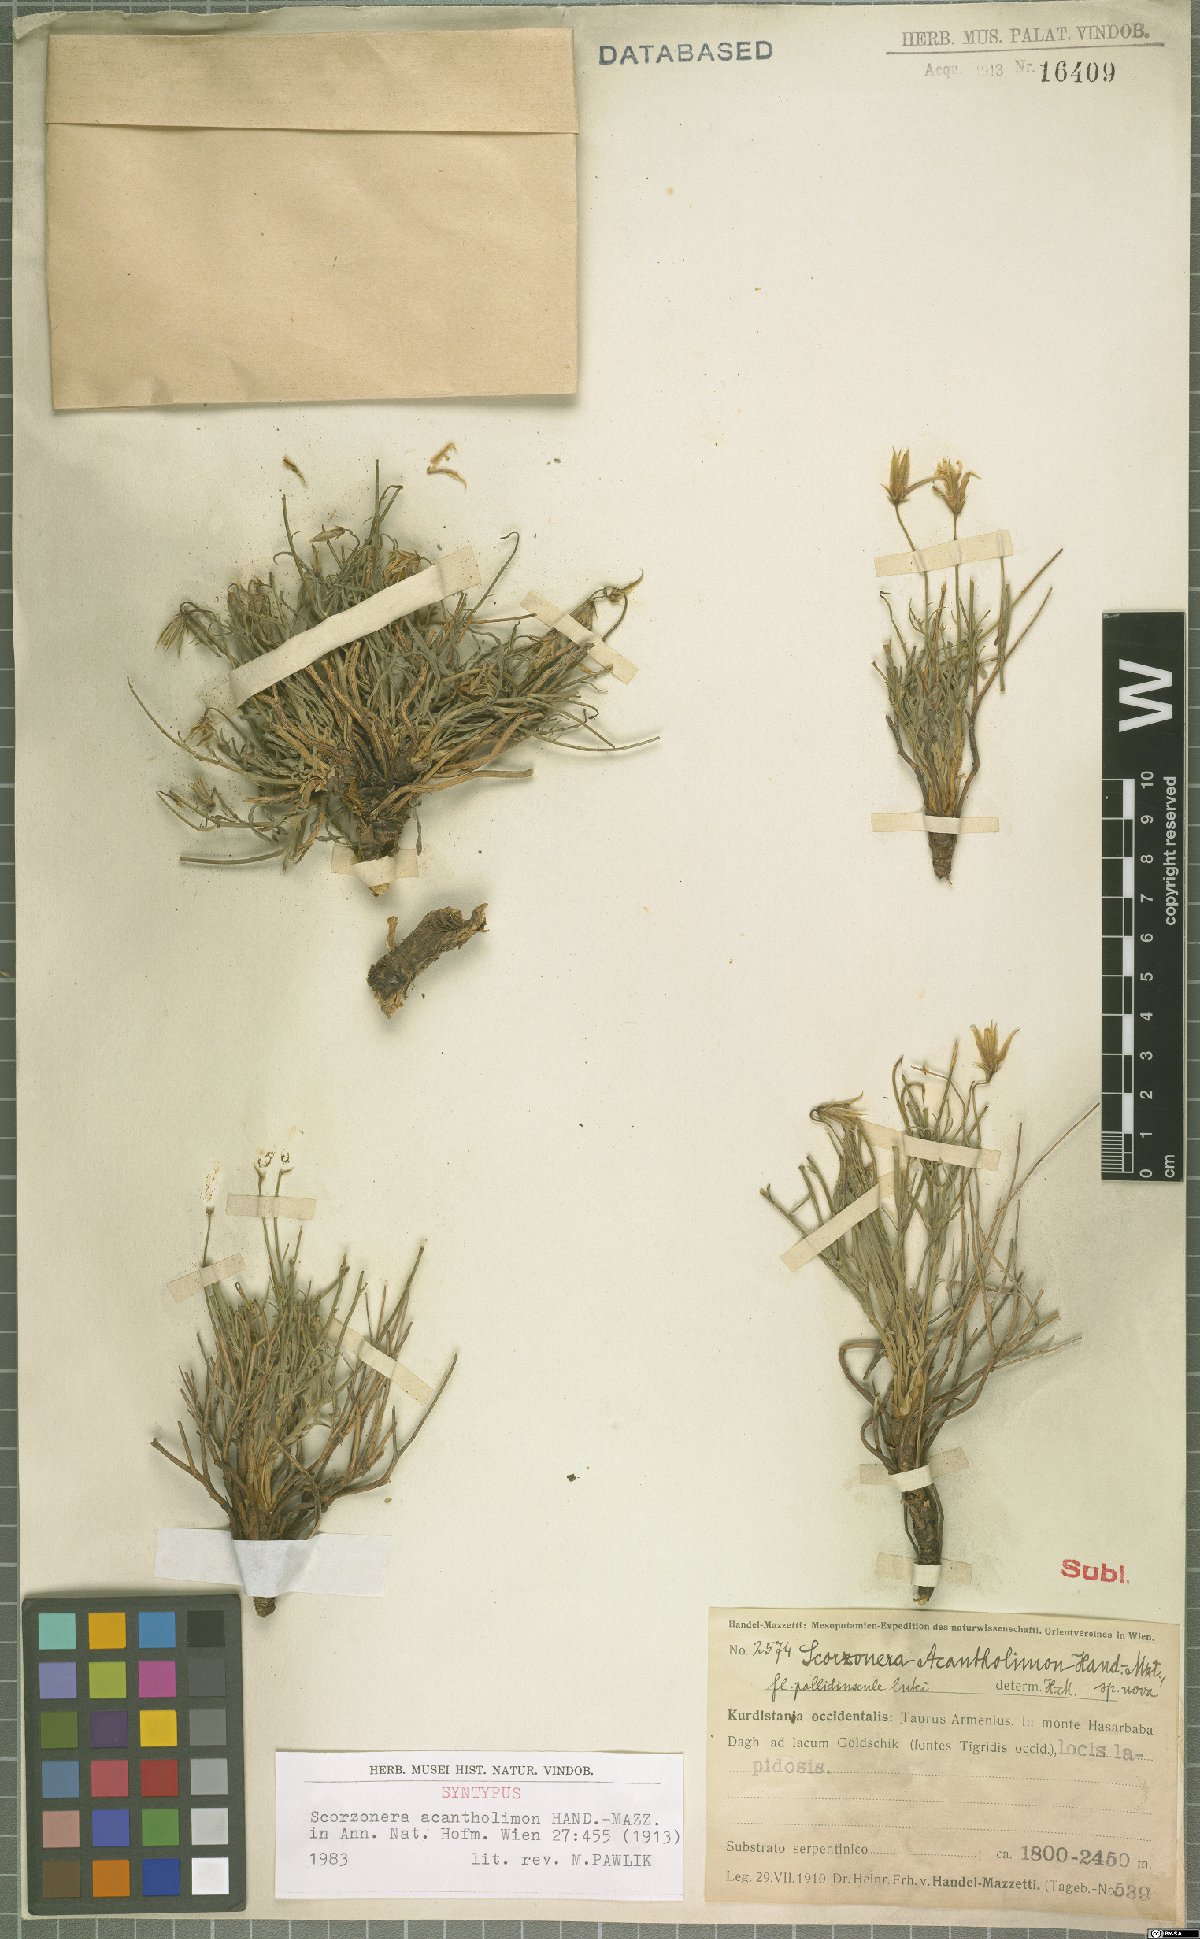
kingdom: Plantae
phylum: Tracheophyta
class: Magnoliopsida
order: Asterales
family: Asteraceae
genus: Ramaliella
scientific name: Ramaliella acantholimon
